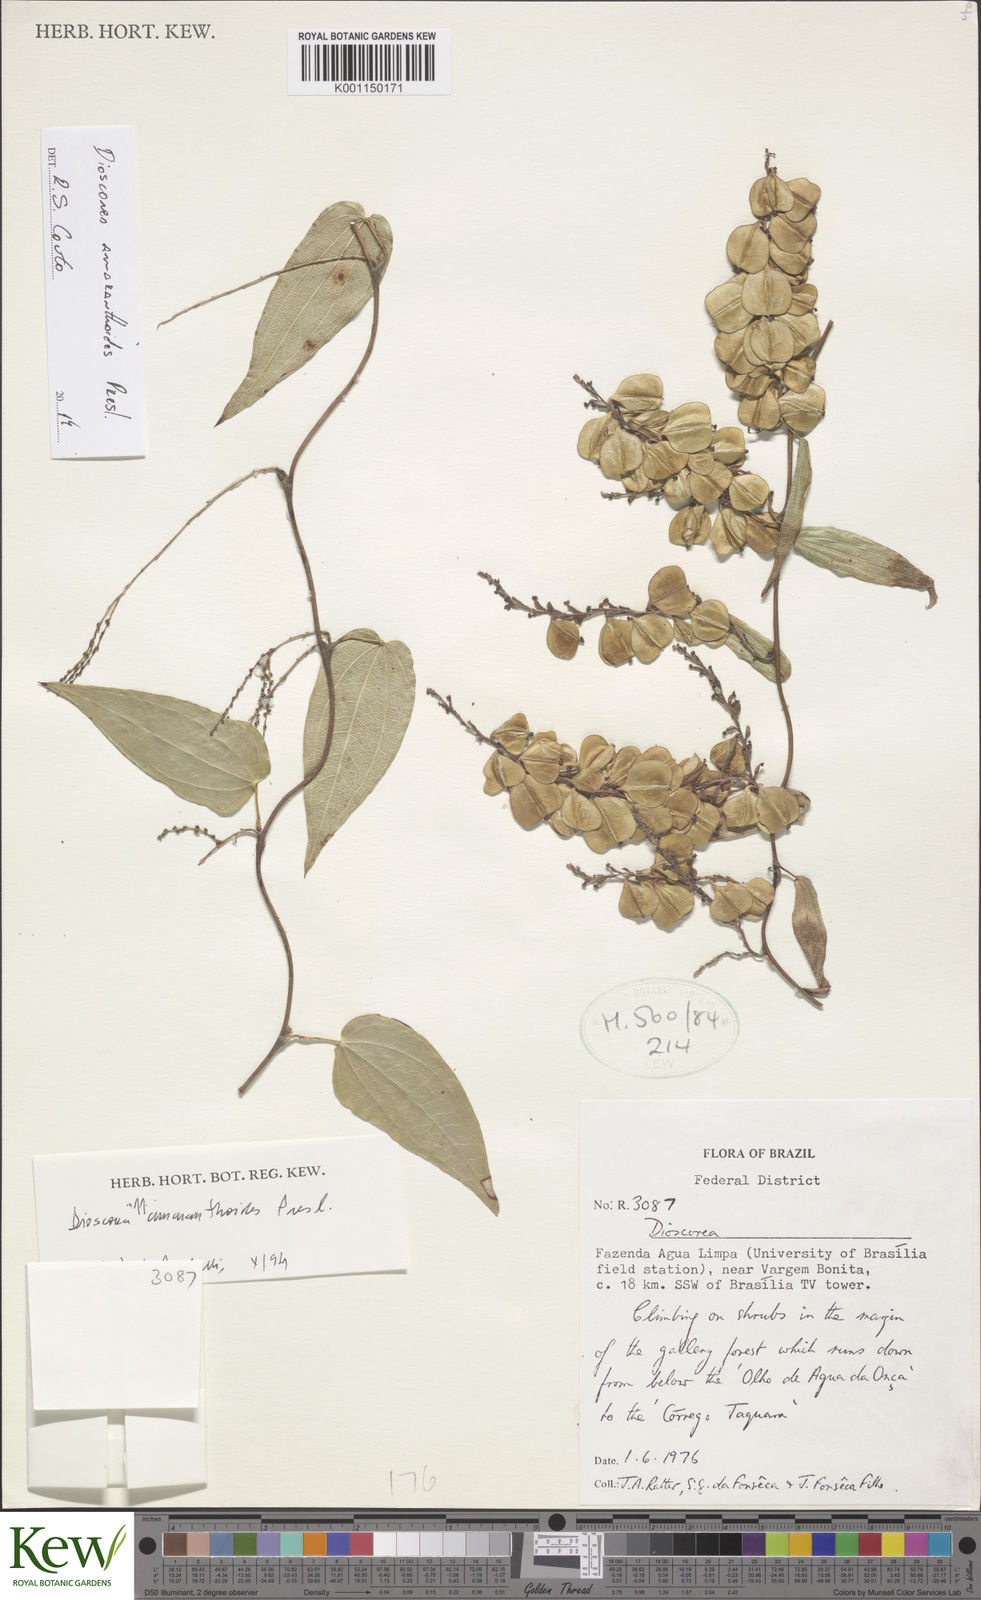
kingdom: Plantae
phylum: Tracheophyta
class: Liliopsida
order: Dioscoreales
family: Dioscoreaceae
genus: Dioscorea
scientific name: Dioscorea
